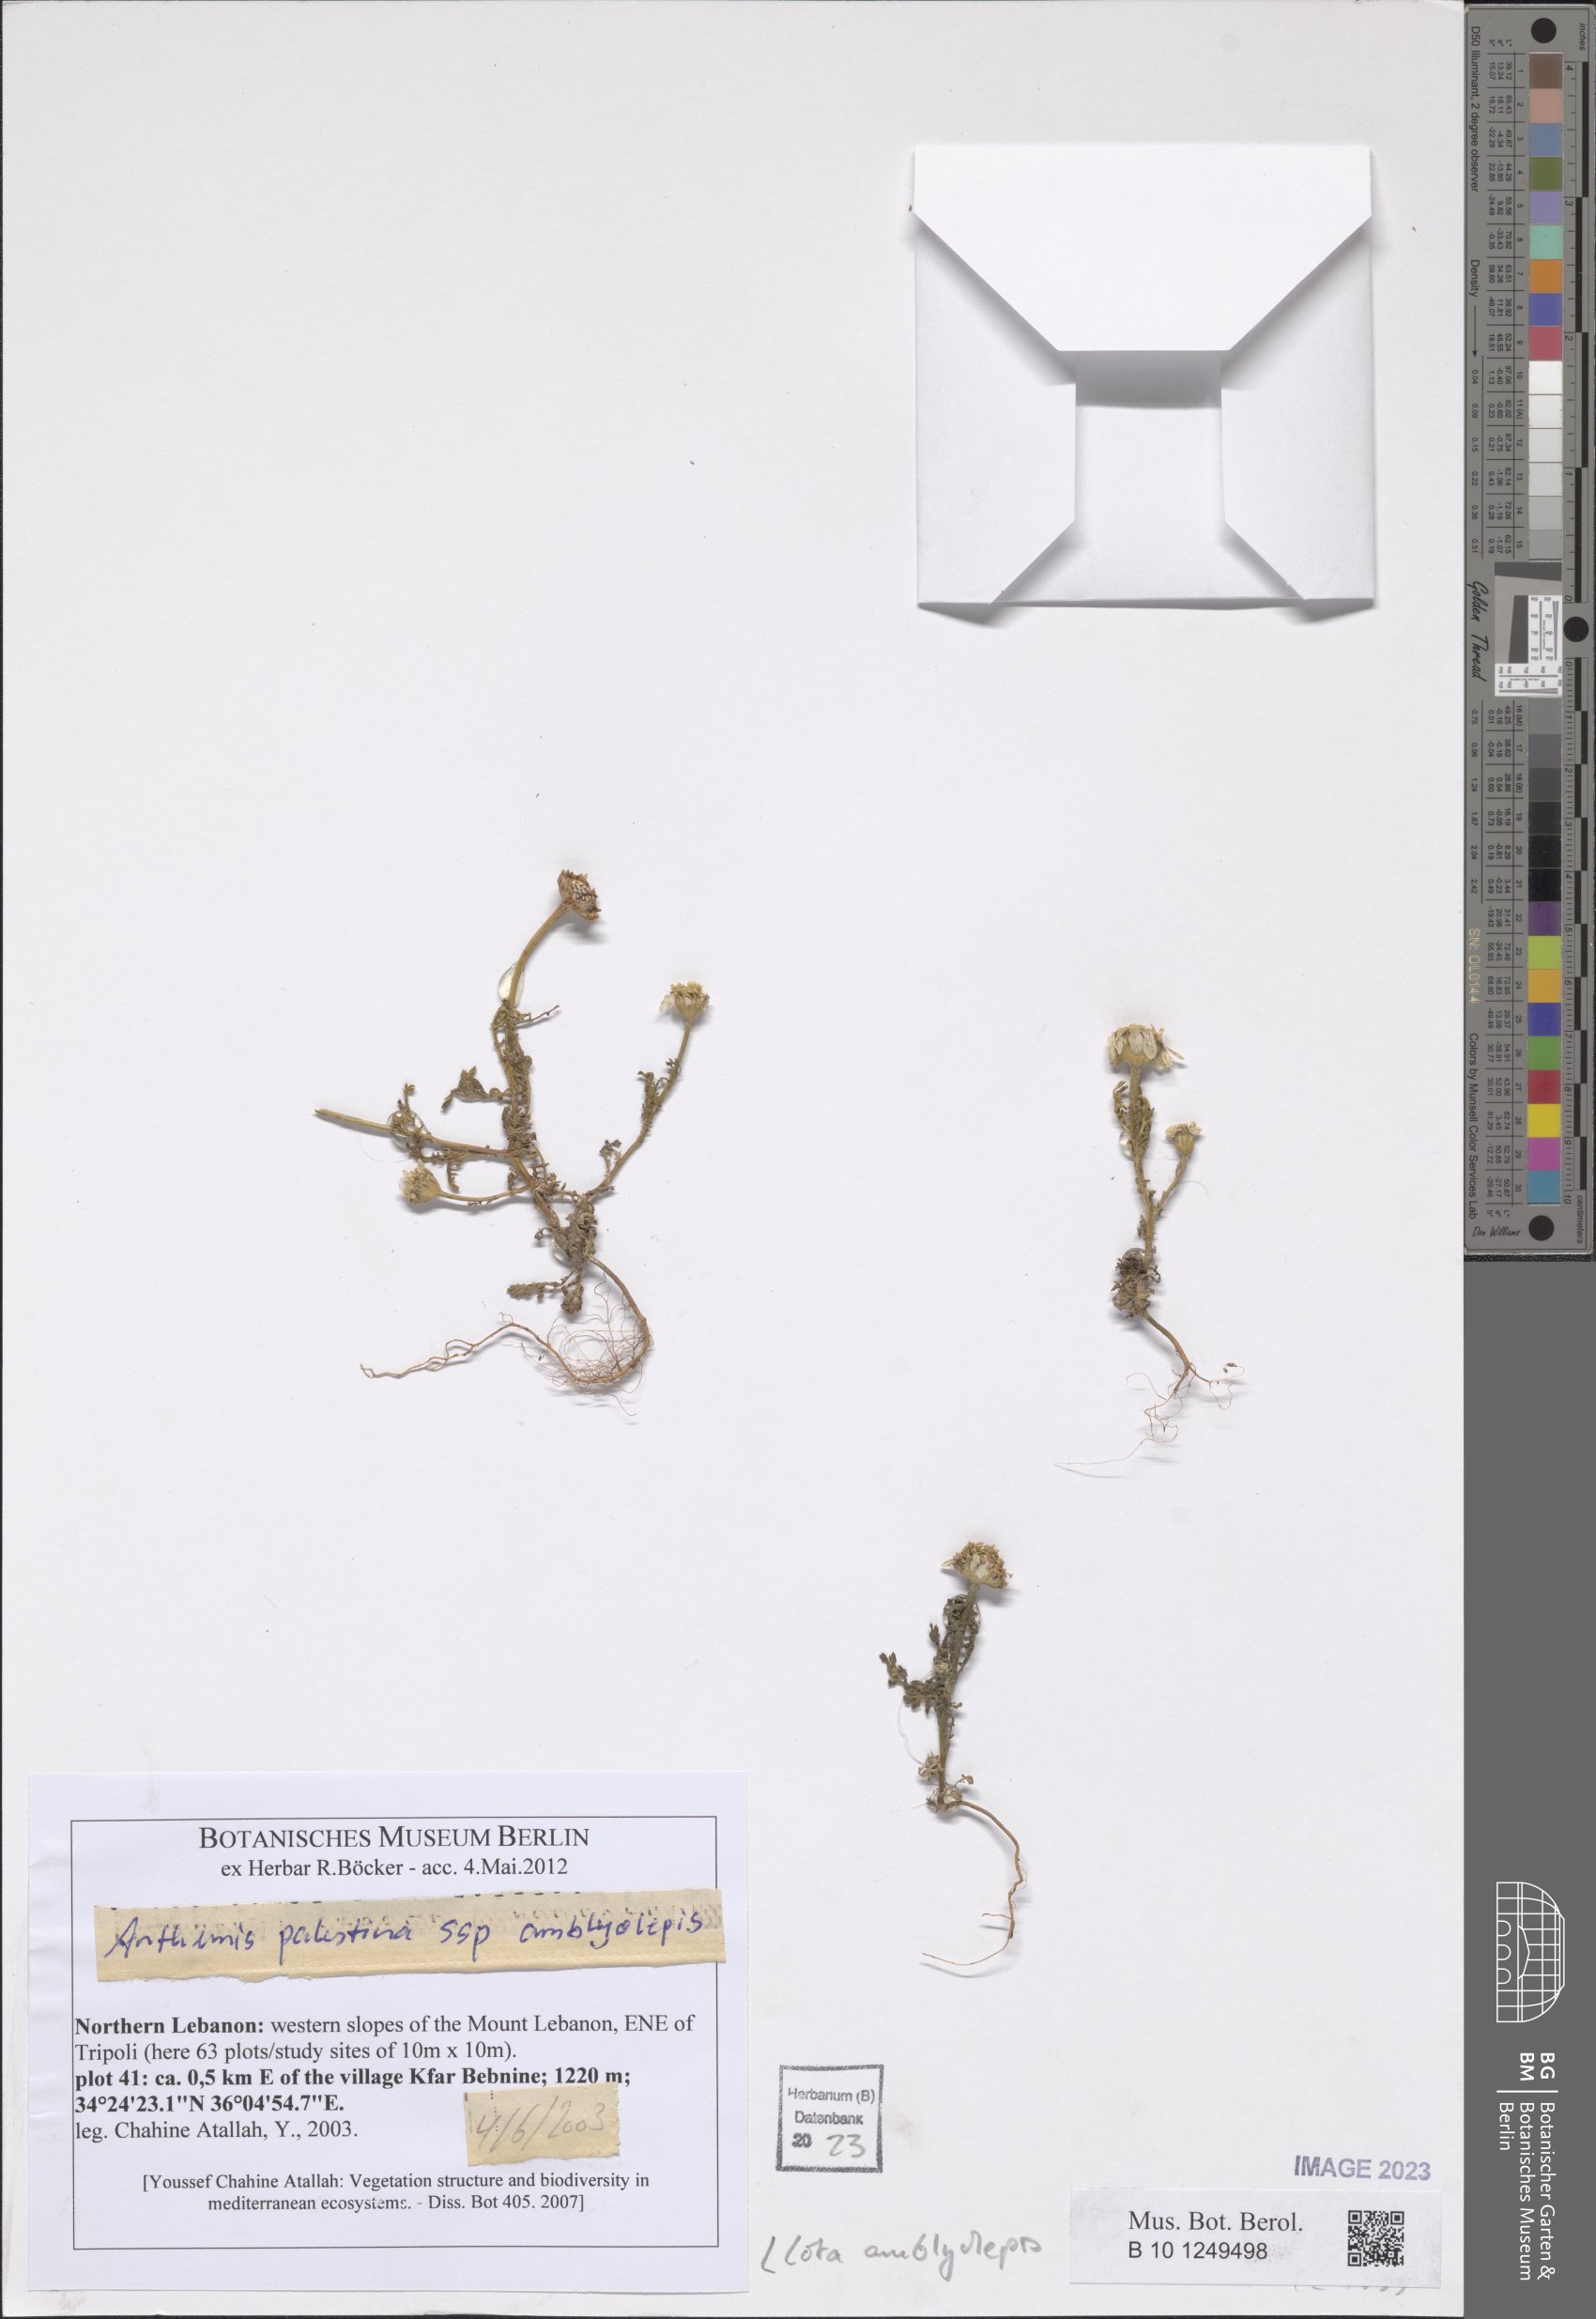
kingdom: Plantae
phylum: Tracheophyta
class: Magnoliopsida
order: Asterales
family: Asteraceae
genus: Cota
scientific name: Cota amblyolepis
